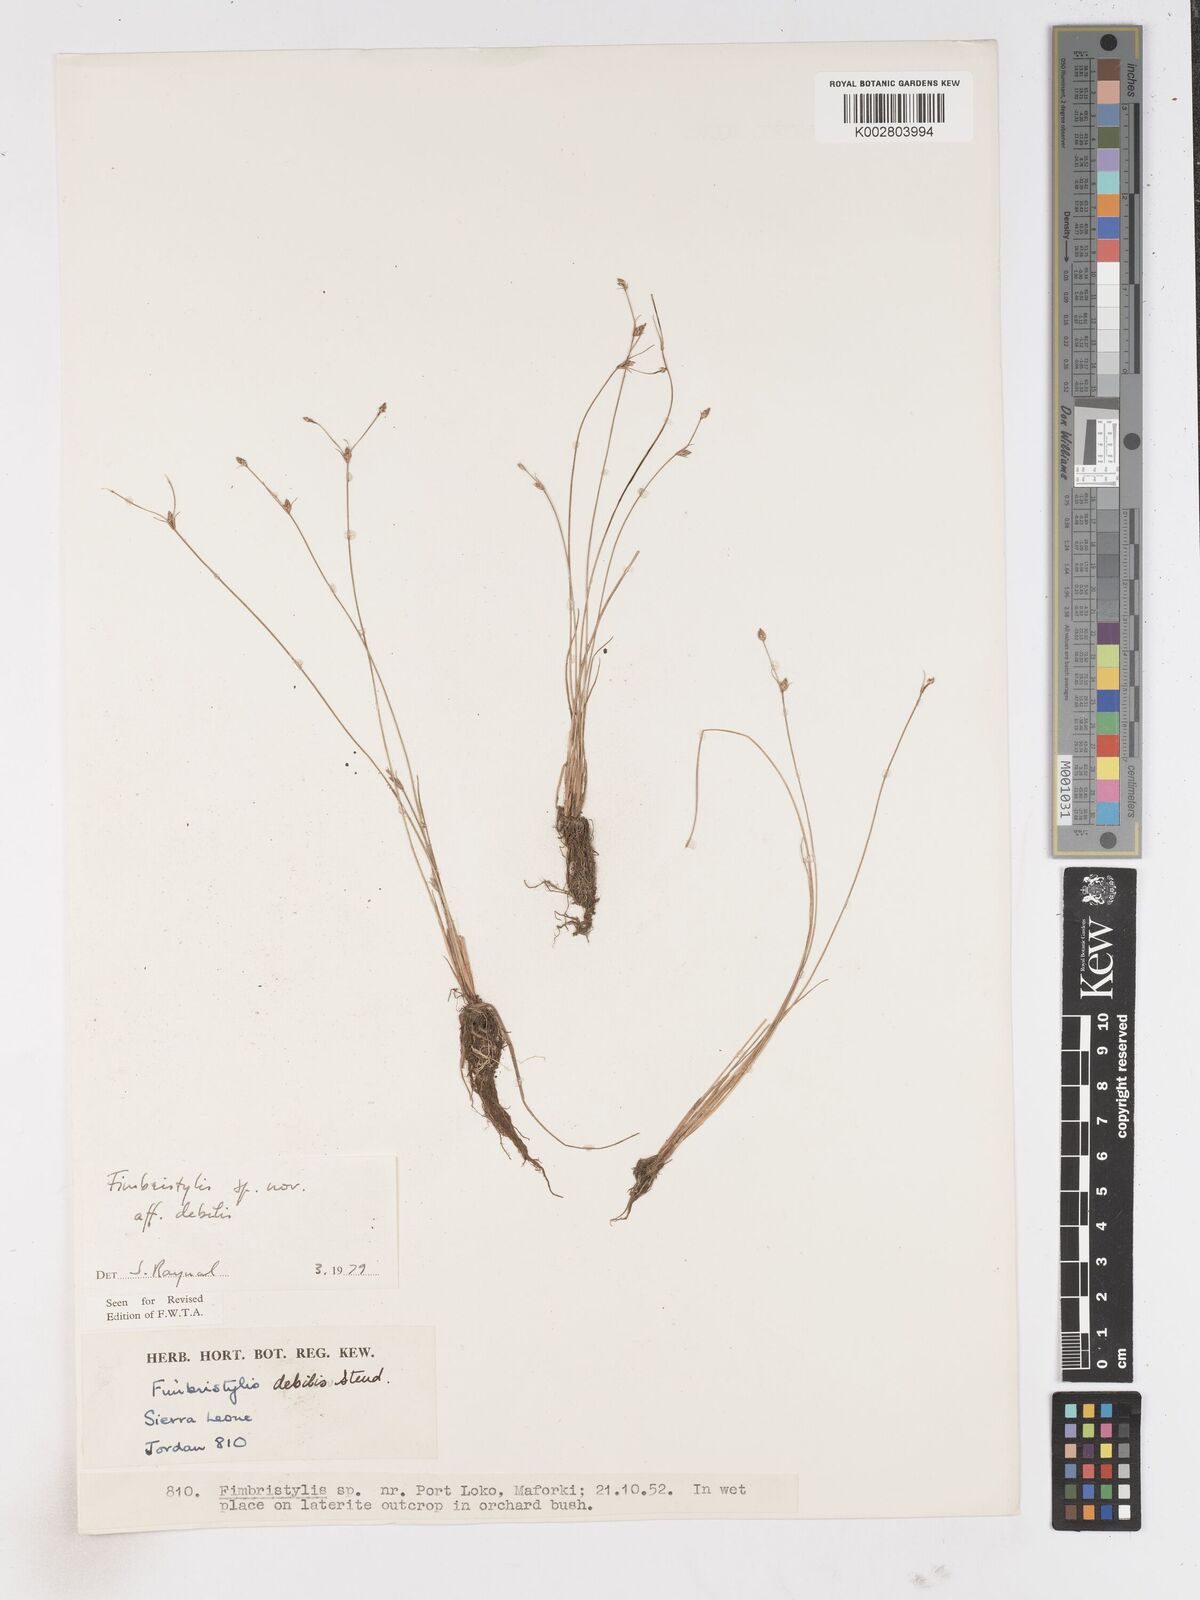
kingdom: Plantae
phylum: Tracheophyta
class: Liliopsida
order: Poales
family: Cyperaceae
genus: Fimbristylis
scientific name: Fimbristylis debilis
